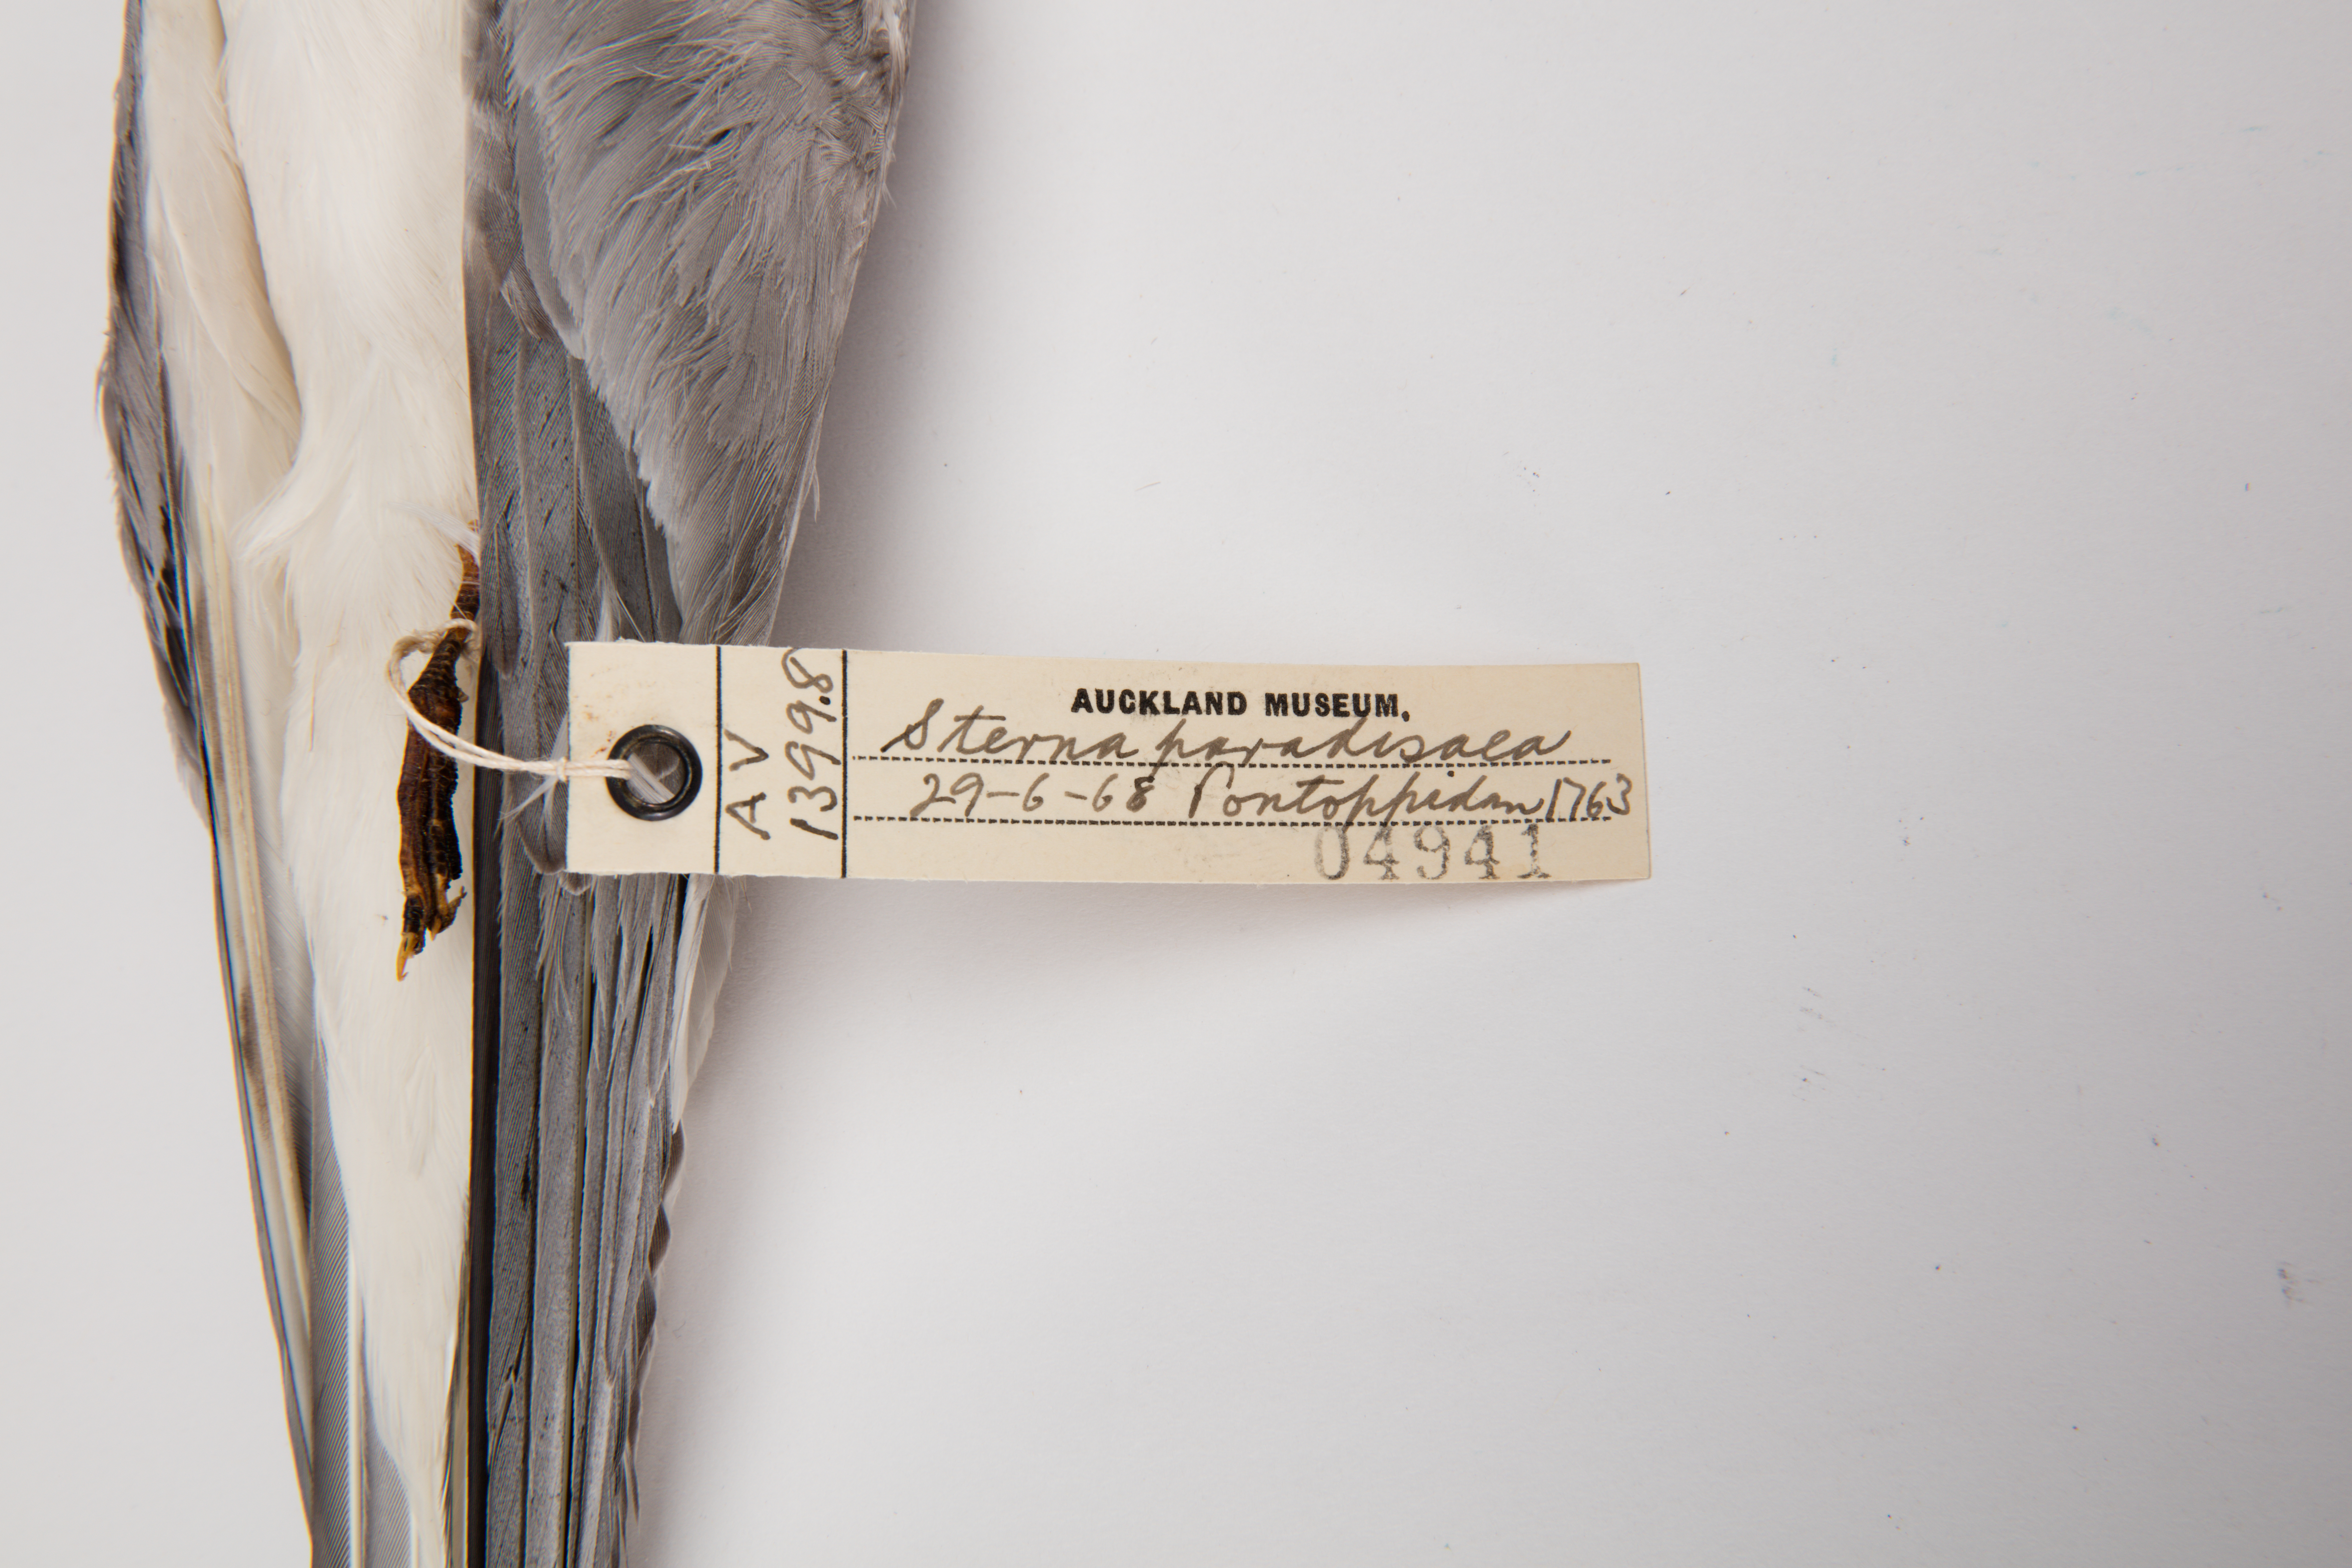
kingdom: Animalia
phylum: Chordata
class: Aves
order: Charadriiformes
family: Laridae
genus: Sterna
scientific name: Sterna paradisaea
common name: Arctic tern
